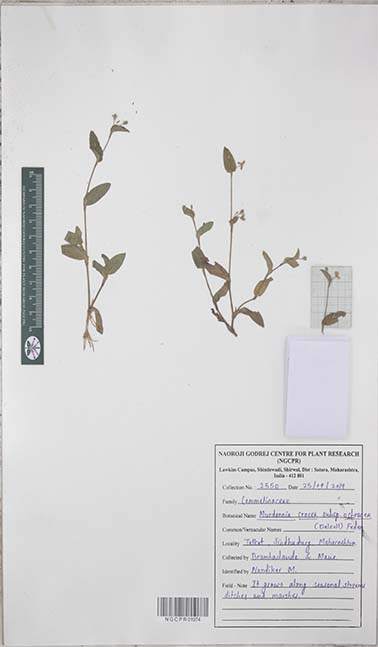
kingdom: Plantae
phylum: Tracheophyta
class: Liliopsida
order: Commelinales
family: Commelinaceae
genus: Murdannia
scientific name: Murdannia crocea
